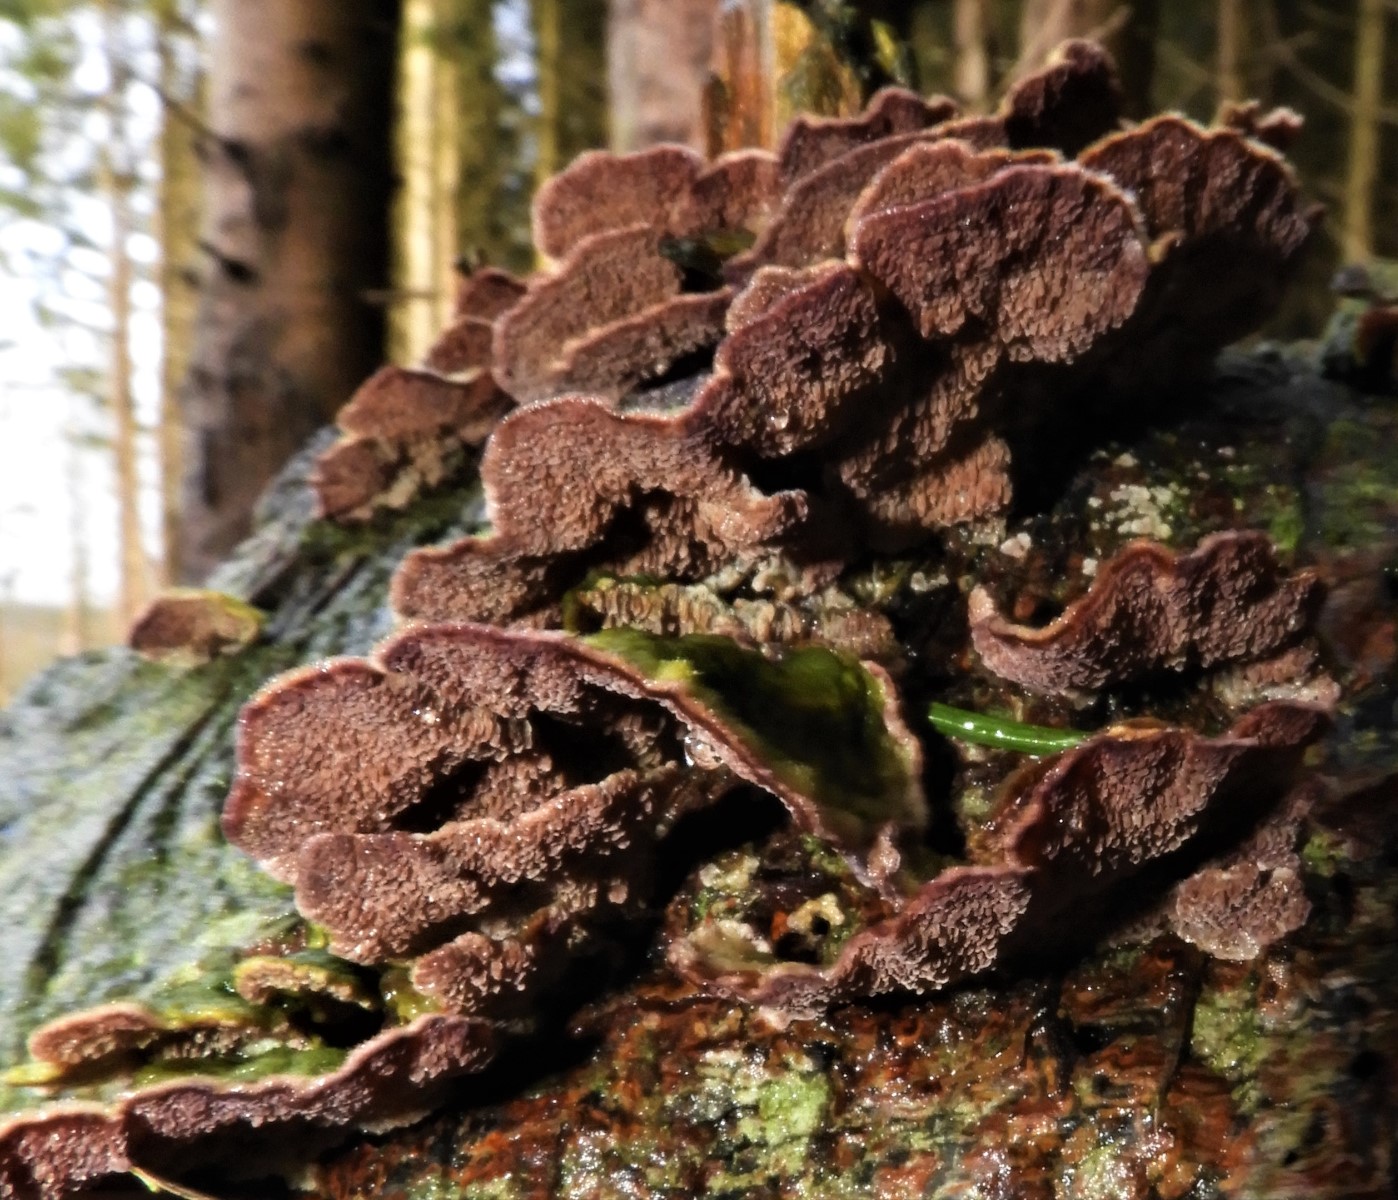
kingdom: Fungi
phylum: Basidiomycota
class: Agaricomycetes
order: Hymenochaetales
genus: Trichaptum
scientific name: Trichaptum fuscoviolaceum
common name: tandet violporesvamp
